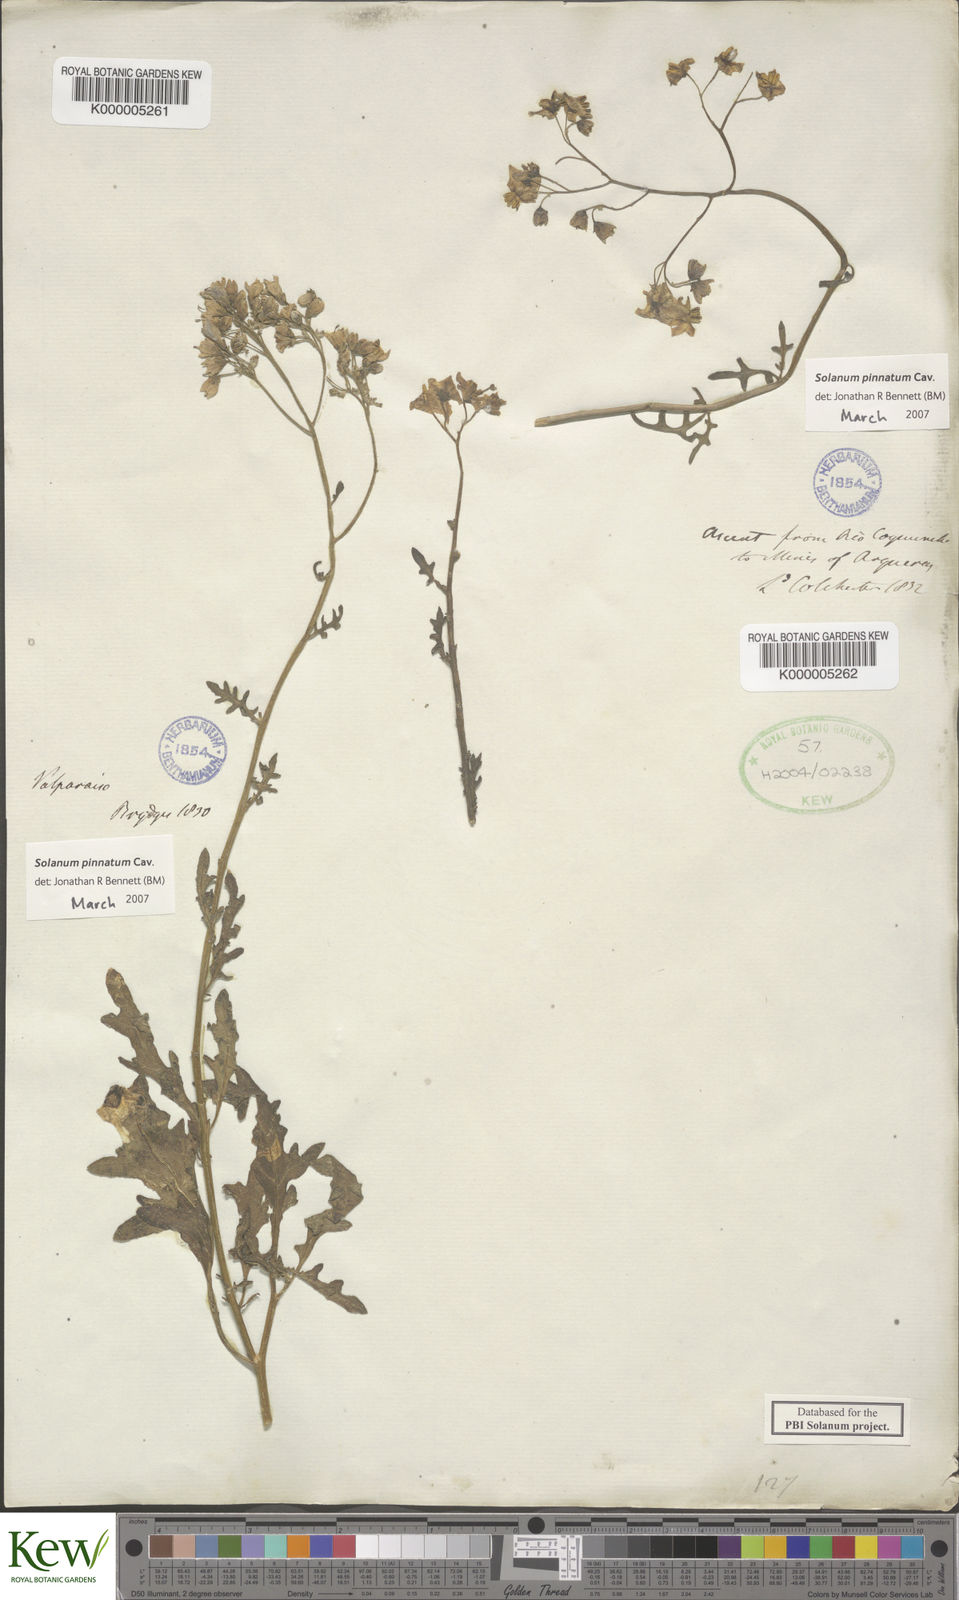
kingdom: Plantae
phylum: Tracheophyta
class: Magnoliopsida
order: Solanales
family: Solanaceae
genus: Solanum
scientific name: Solanum pinnatum
